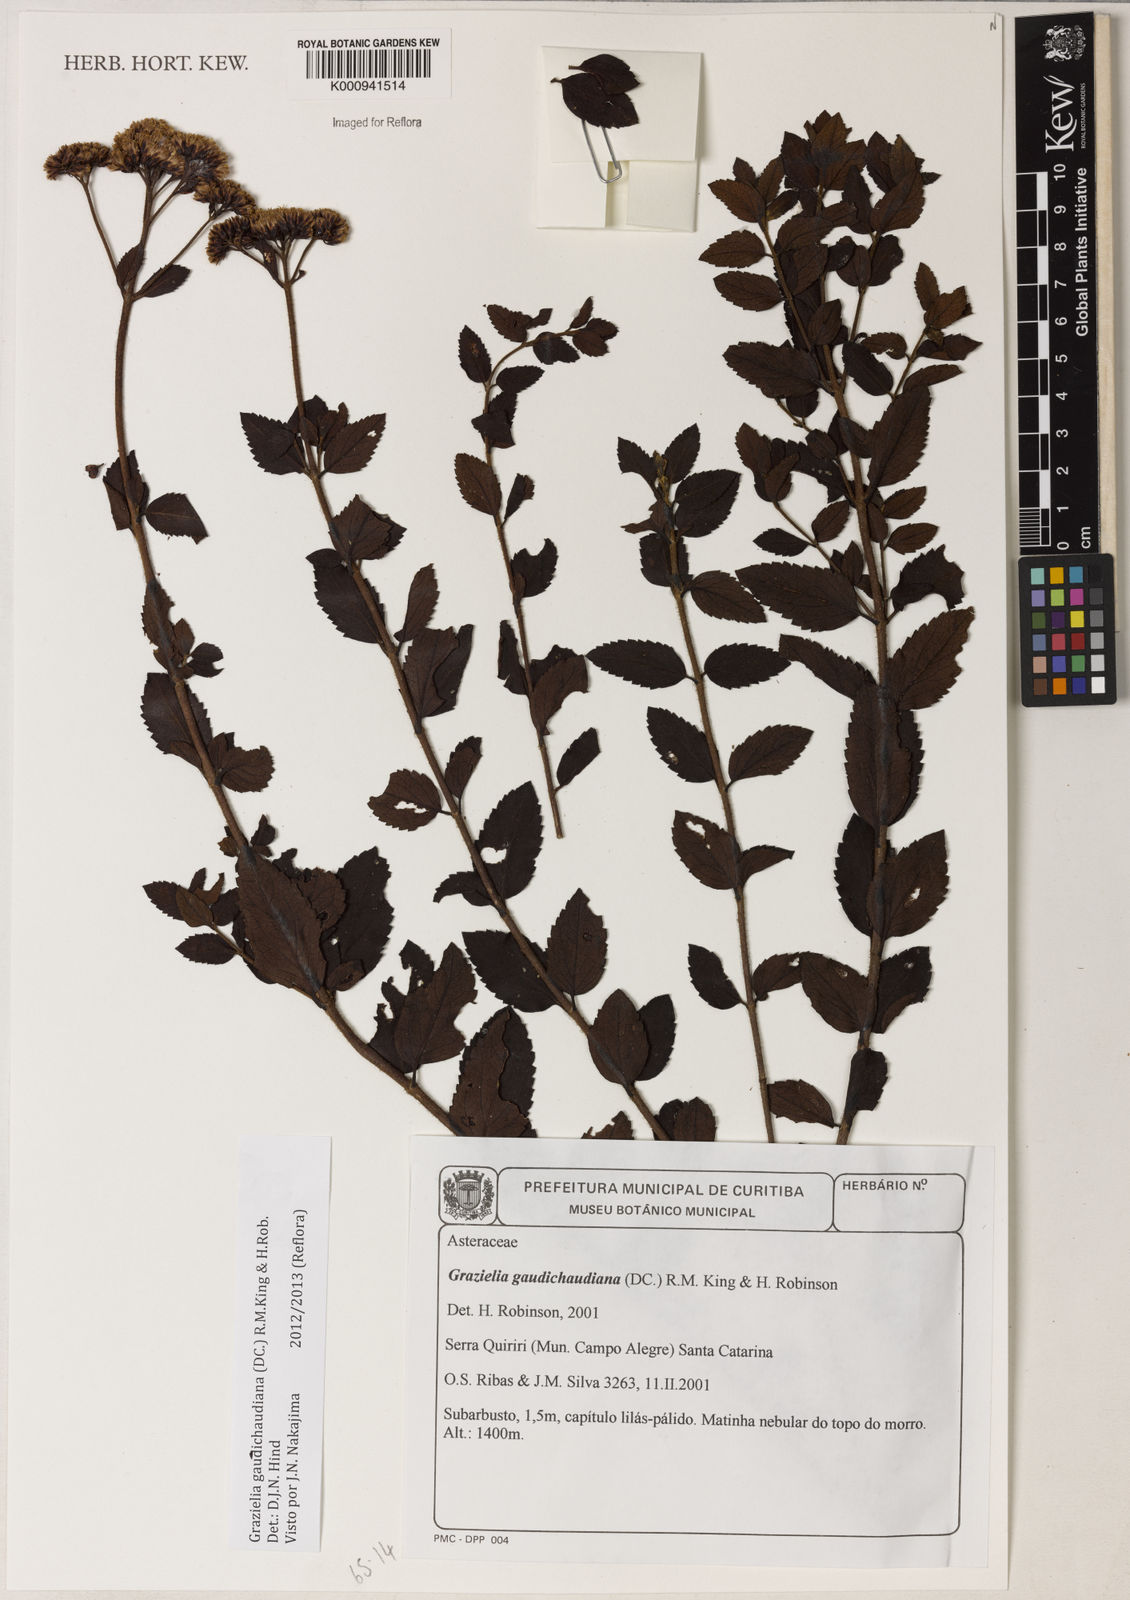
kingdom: Plantae
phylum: Tracheophyta
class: Magnoliopsida
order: Asterales
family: Asteraceae
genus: Grazielia
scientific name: Grazielia
